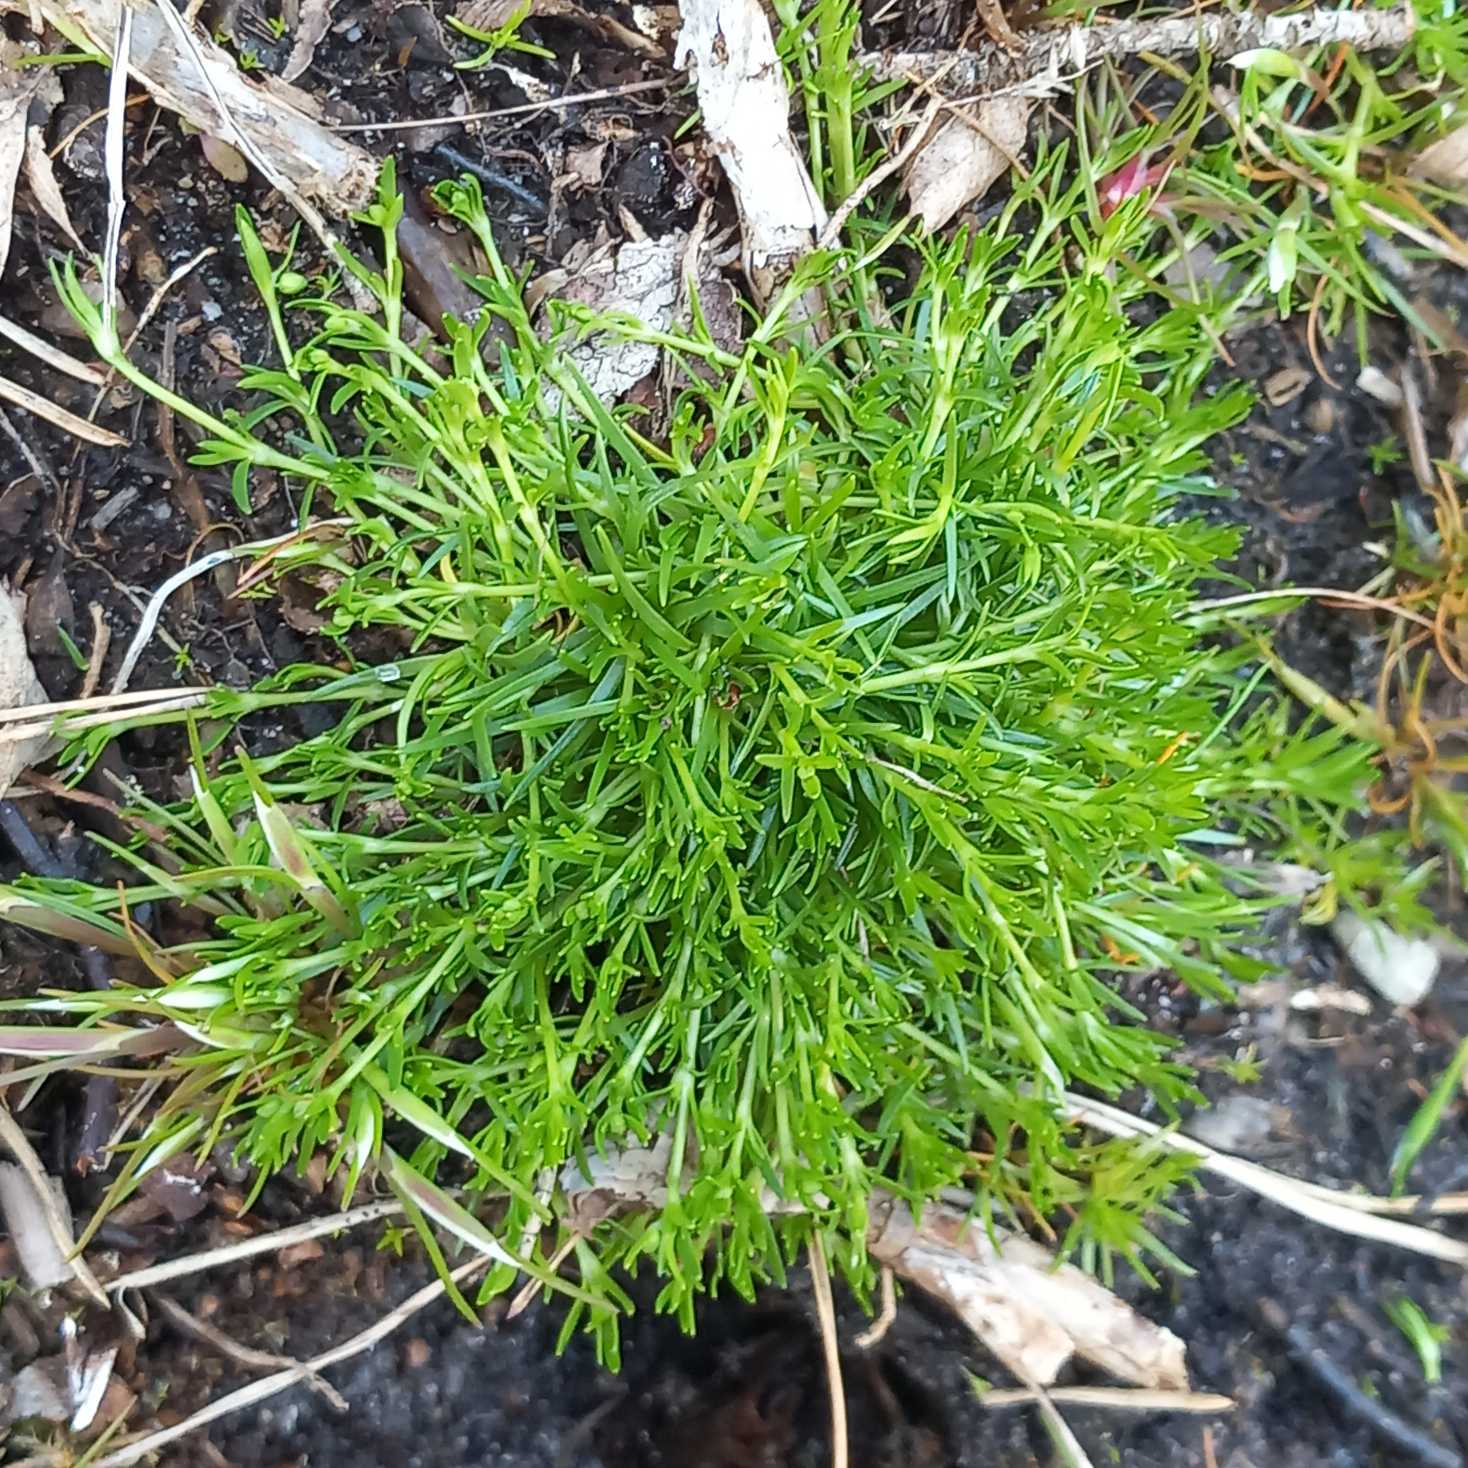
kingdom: Plantae
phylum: Tracheophyta
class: Magnoliopsida
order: Caryophyllales
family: Caryophyllaceae
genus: Sagina
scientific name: Sagina procumbens
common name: Almindelig firling
